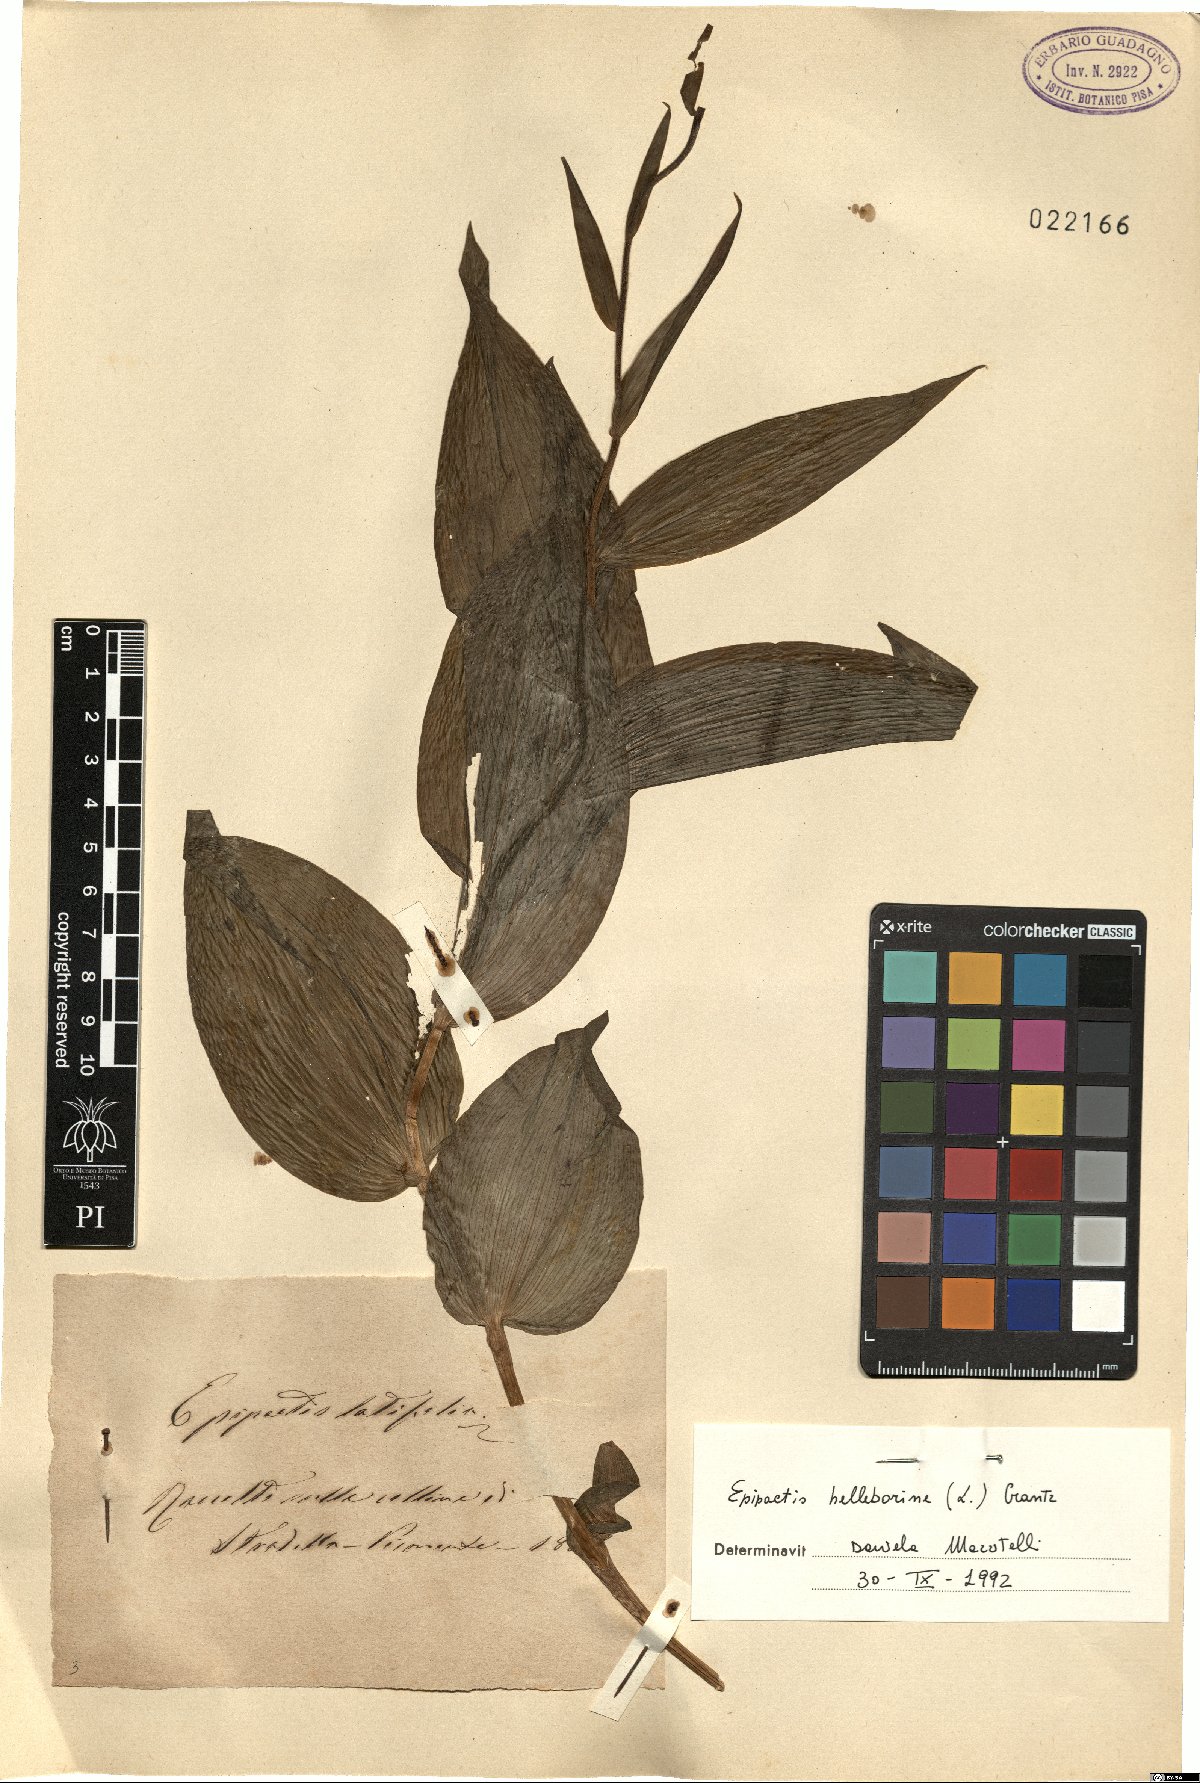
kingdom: Plantae
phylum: Tracheophyta
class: Liliopsida
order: Asparagales
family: Orchidaceae
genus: Epipactis
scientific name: Epipactis helleborine
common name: Broad-leaved helleborine
